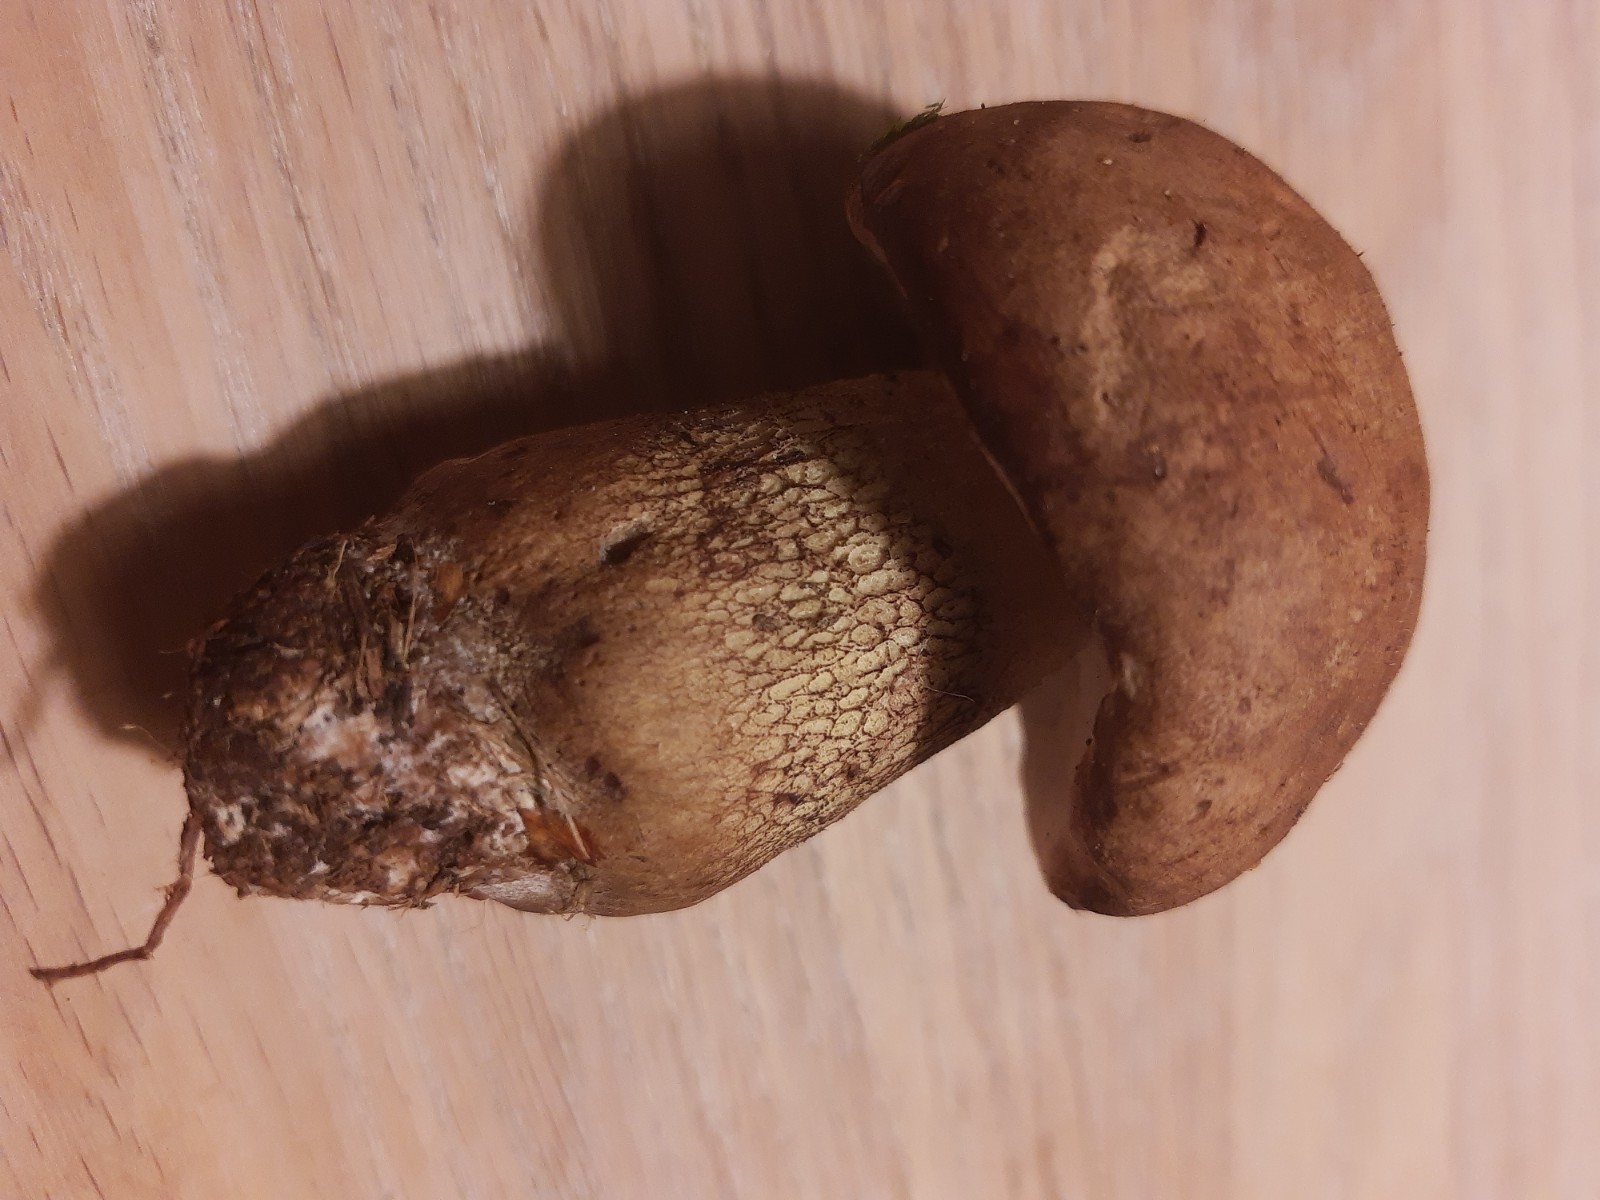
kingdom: Fungi
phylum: Basidiomycota
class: Agaricomycetes
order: Boletales
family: Boletaceae
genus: Tylopilus
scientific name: Tylopilus felleus
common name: galderørhat
